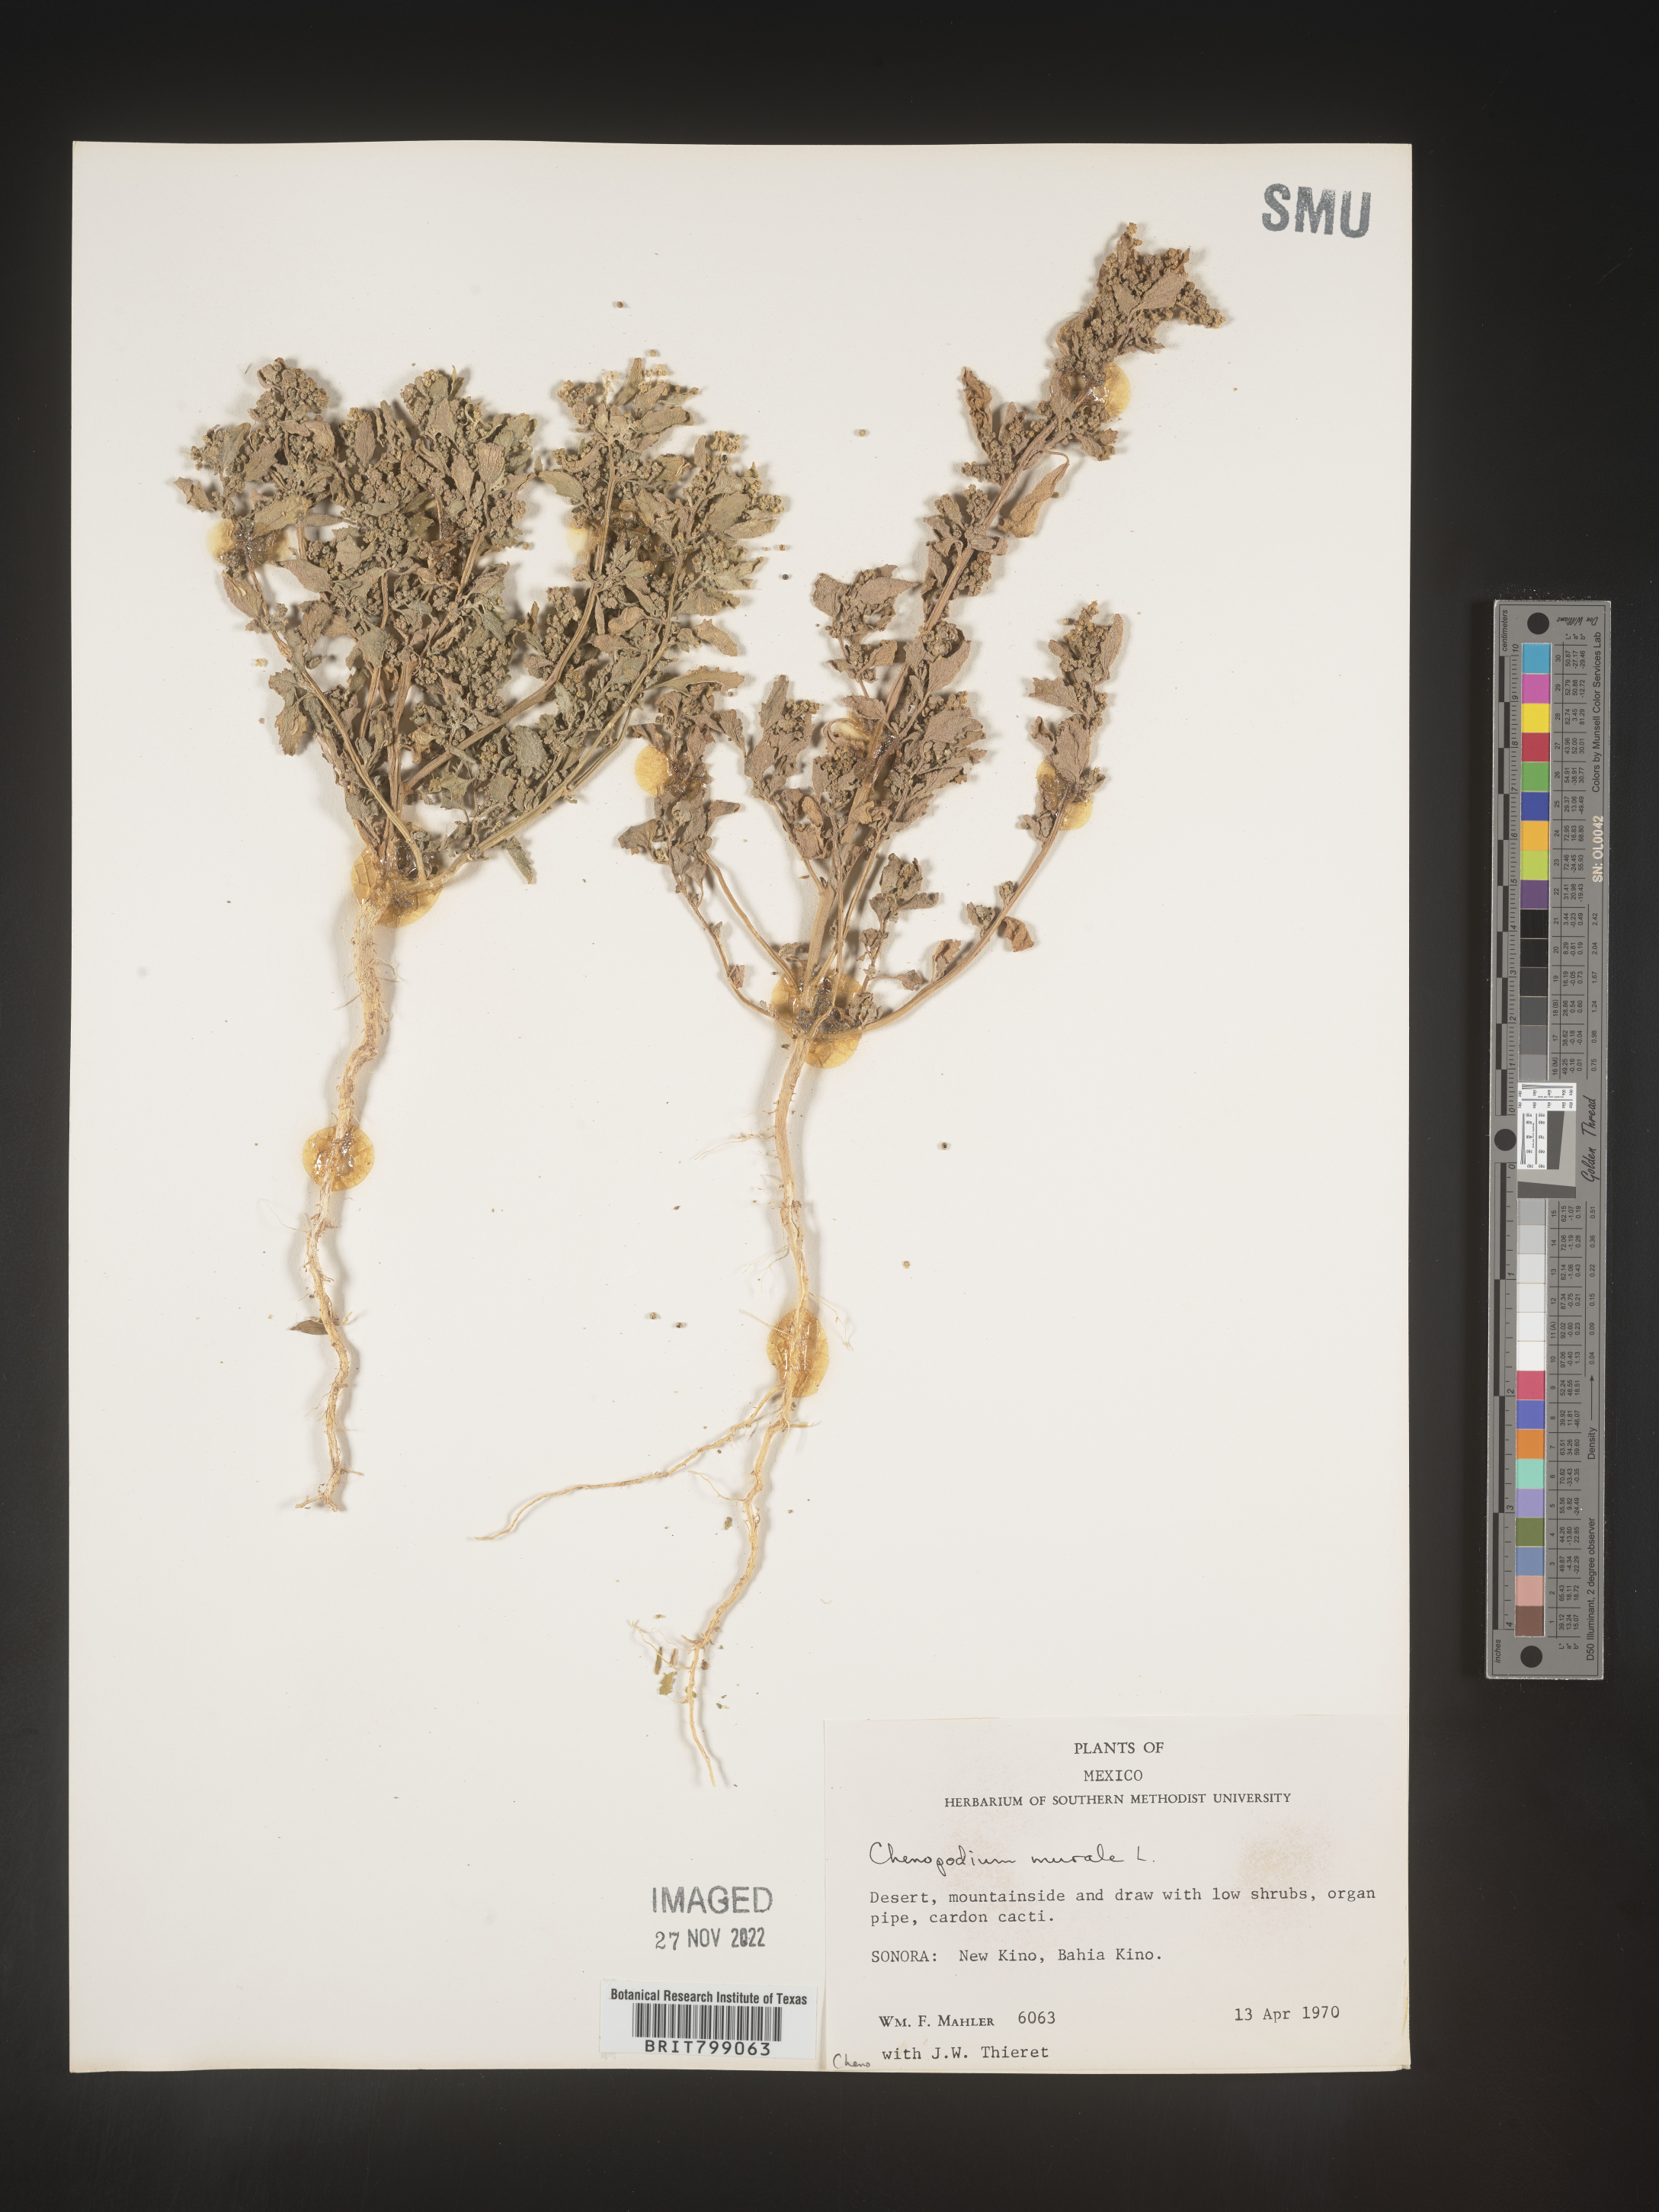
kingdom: Plantae
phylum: Tracheophyta
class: Magnoliopsida
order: Caryophyllales
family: Amaranthaceae
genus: Chenopodium
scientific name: Chenopodium
